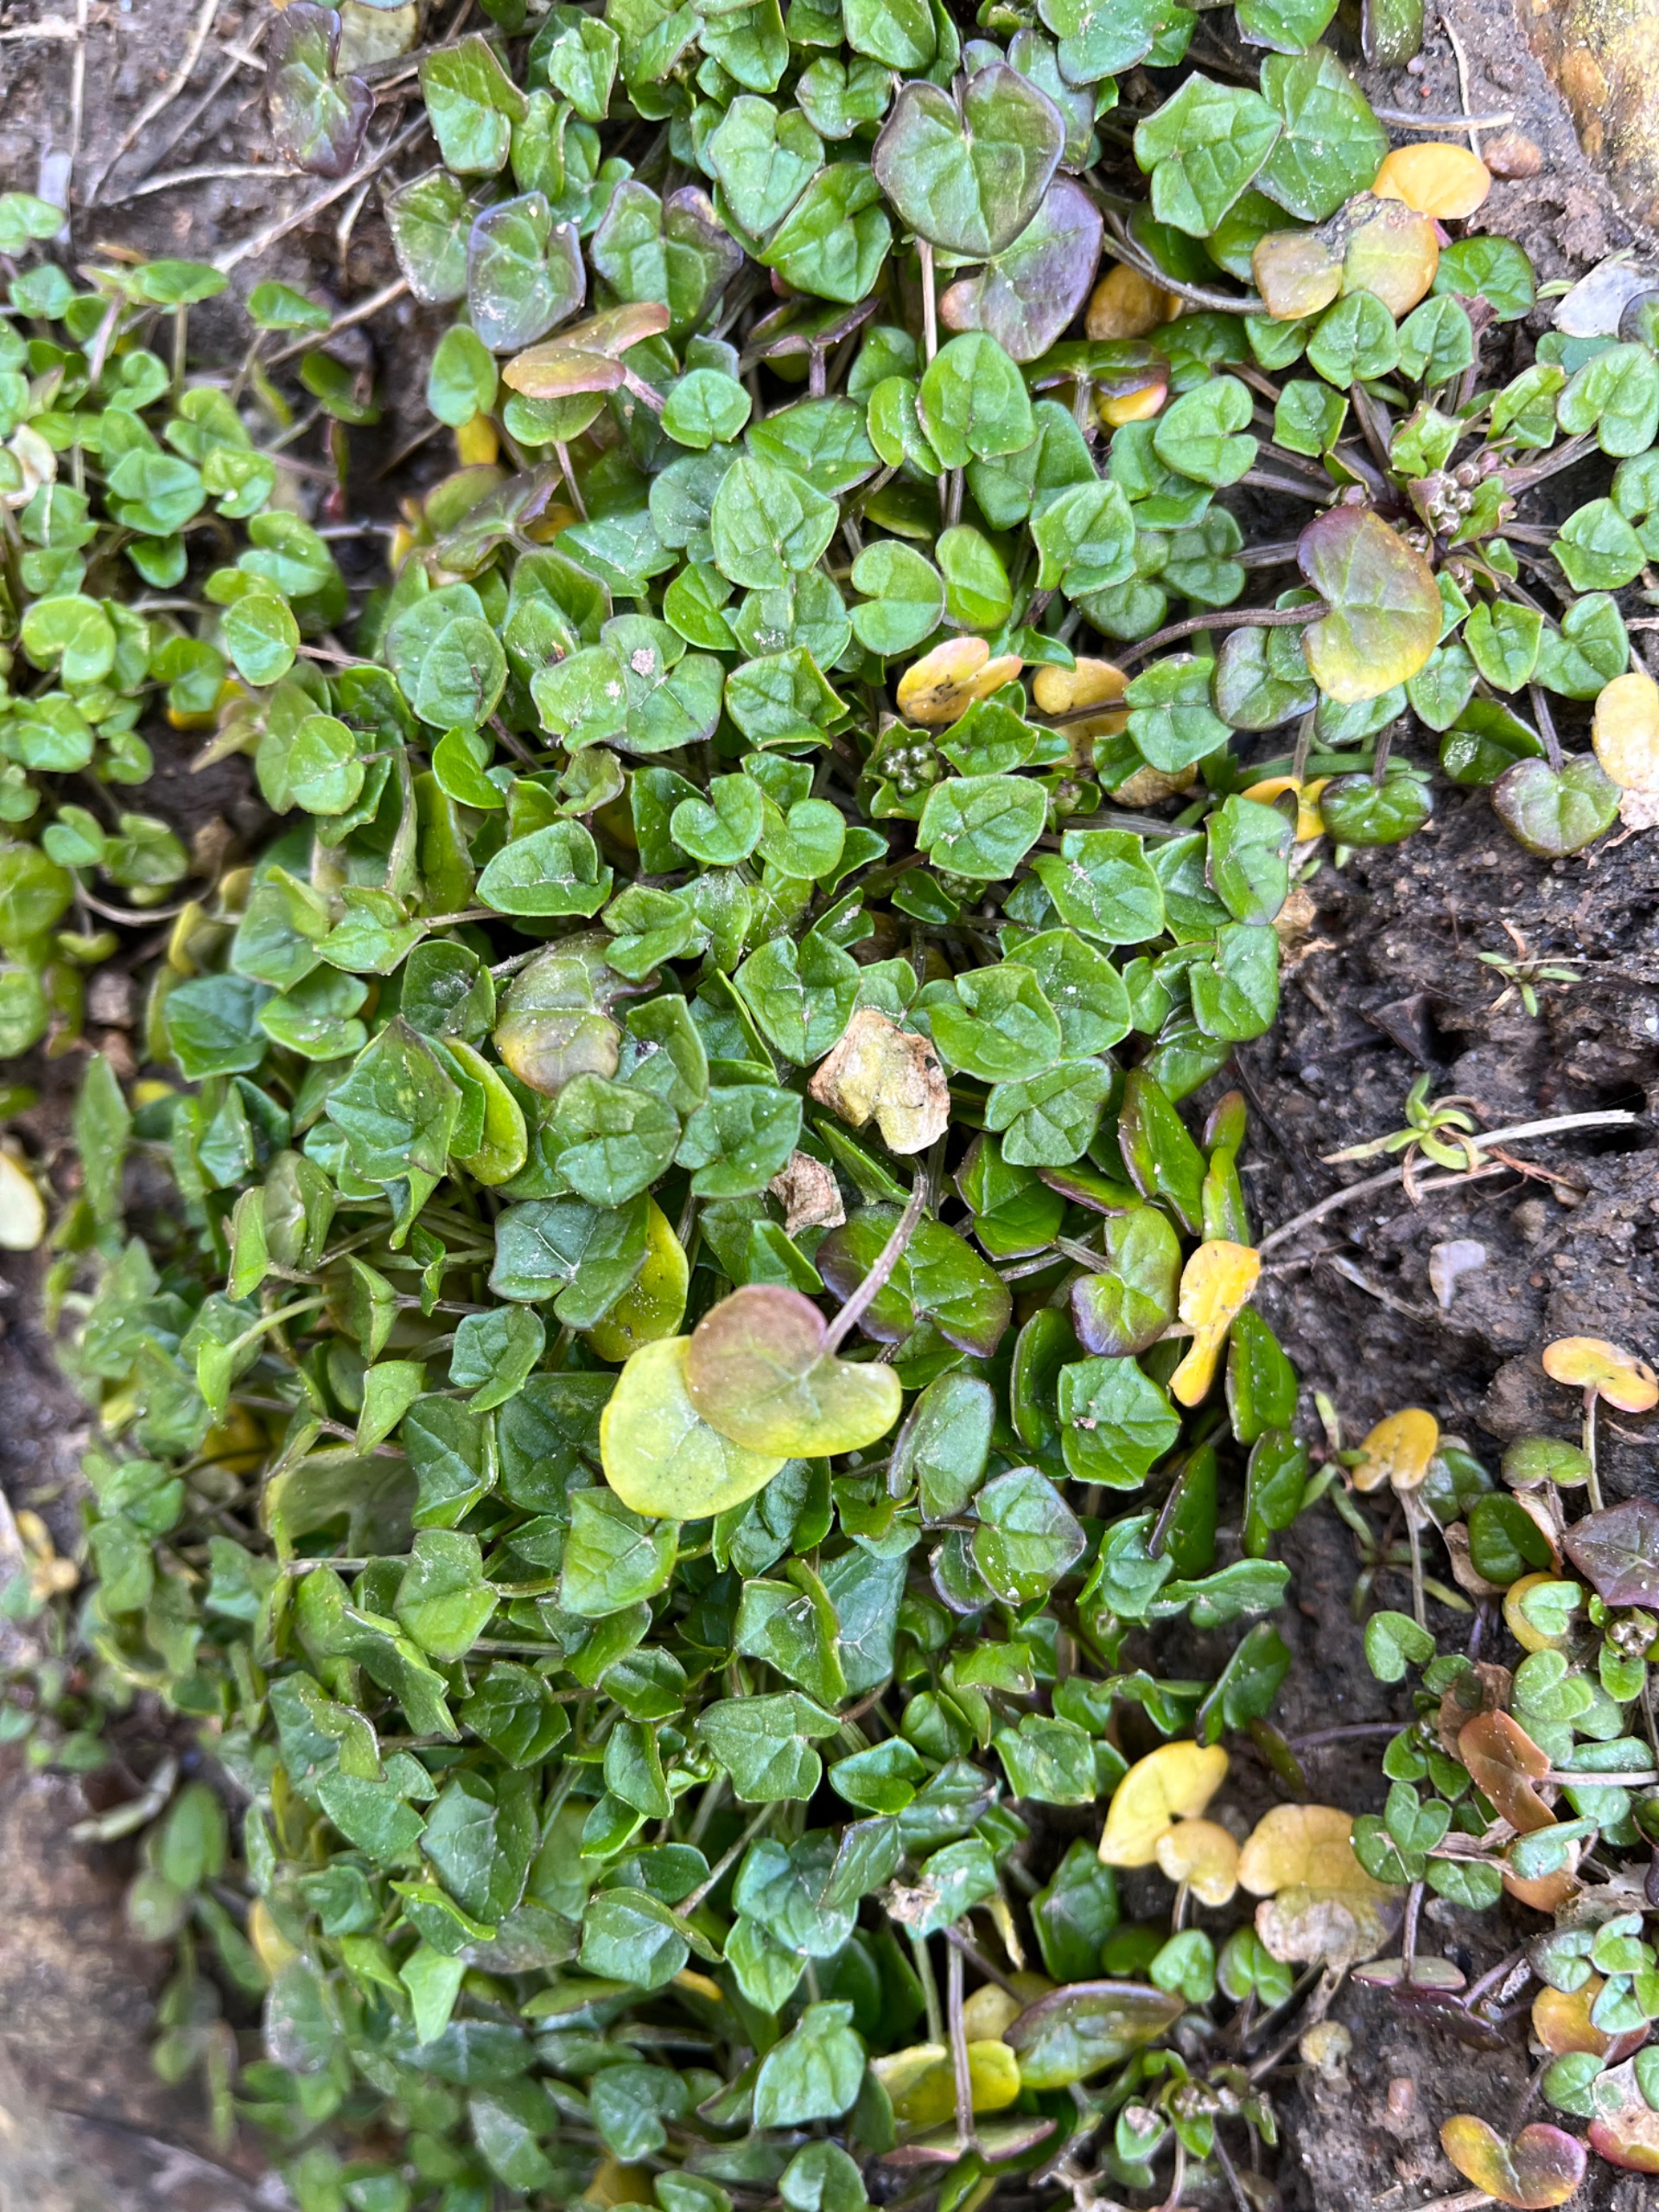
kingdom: Plantae
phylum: Tracheophyta
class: Magnoliopsida
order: Brassicales
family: Brassicaceae
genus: Cochlearia
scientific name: Cochlearia danica
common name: Dansk kokleare
